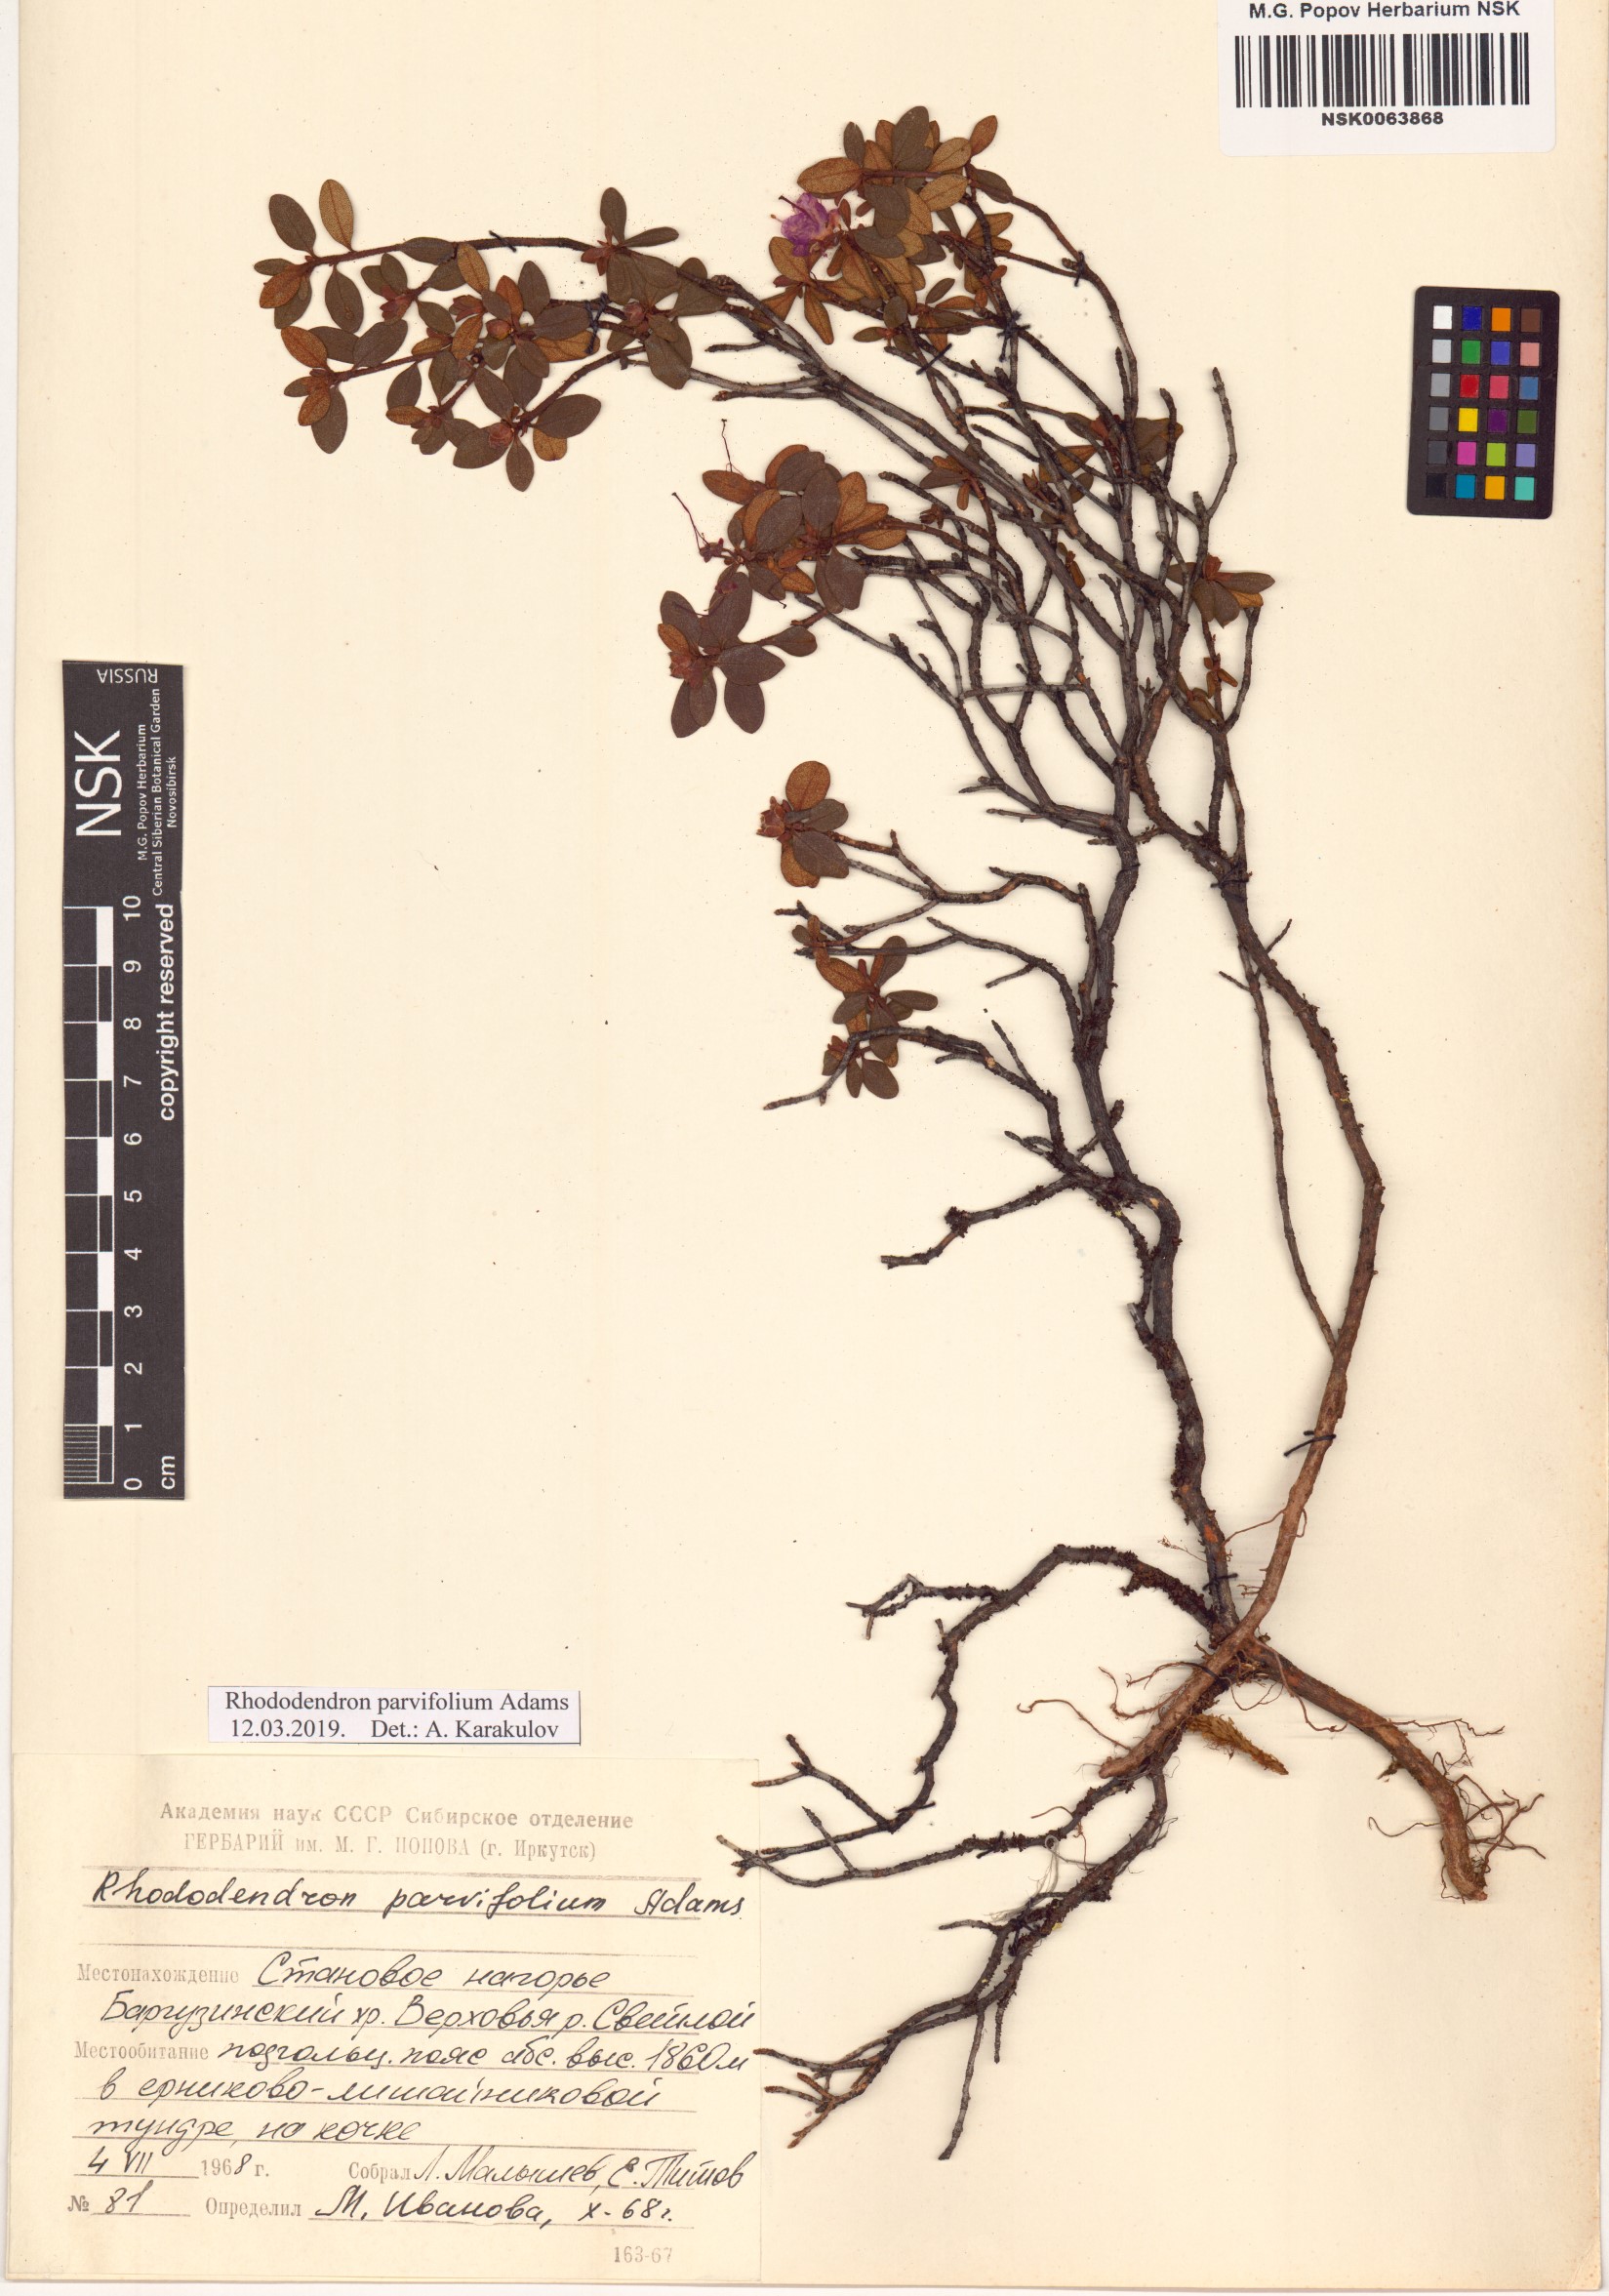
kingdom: Plantae
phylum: Tracheophyta
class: Magnoliopsida
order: Ericales
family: Ericaceae
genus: Rhododendron
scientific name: Rhododendron parvifolium
